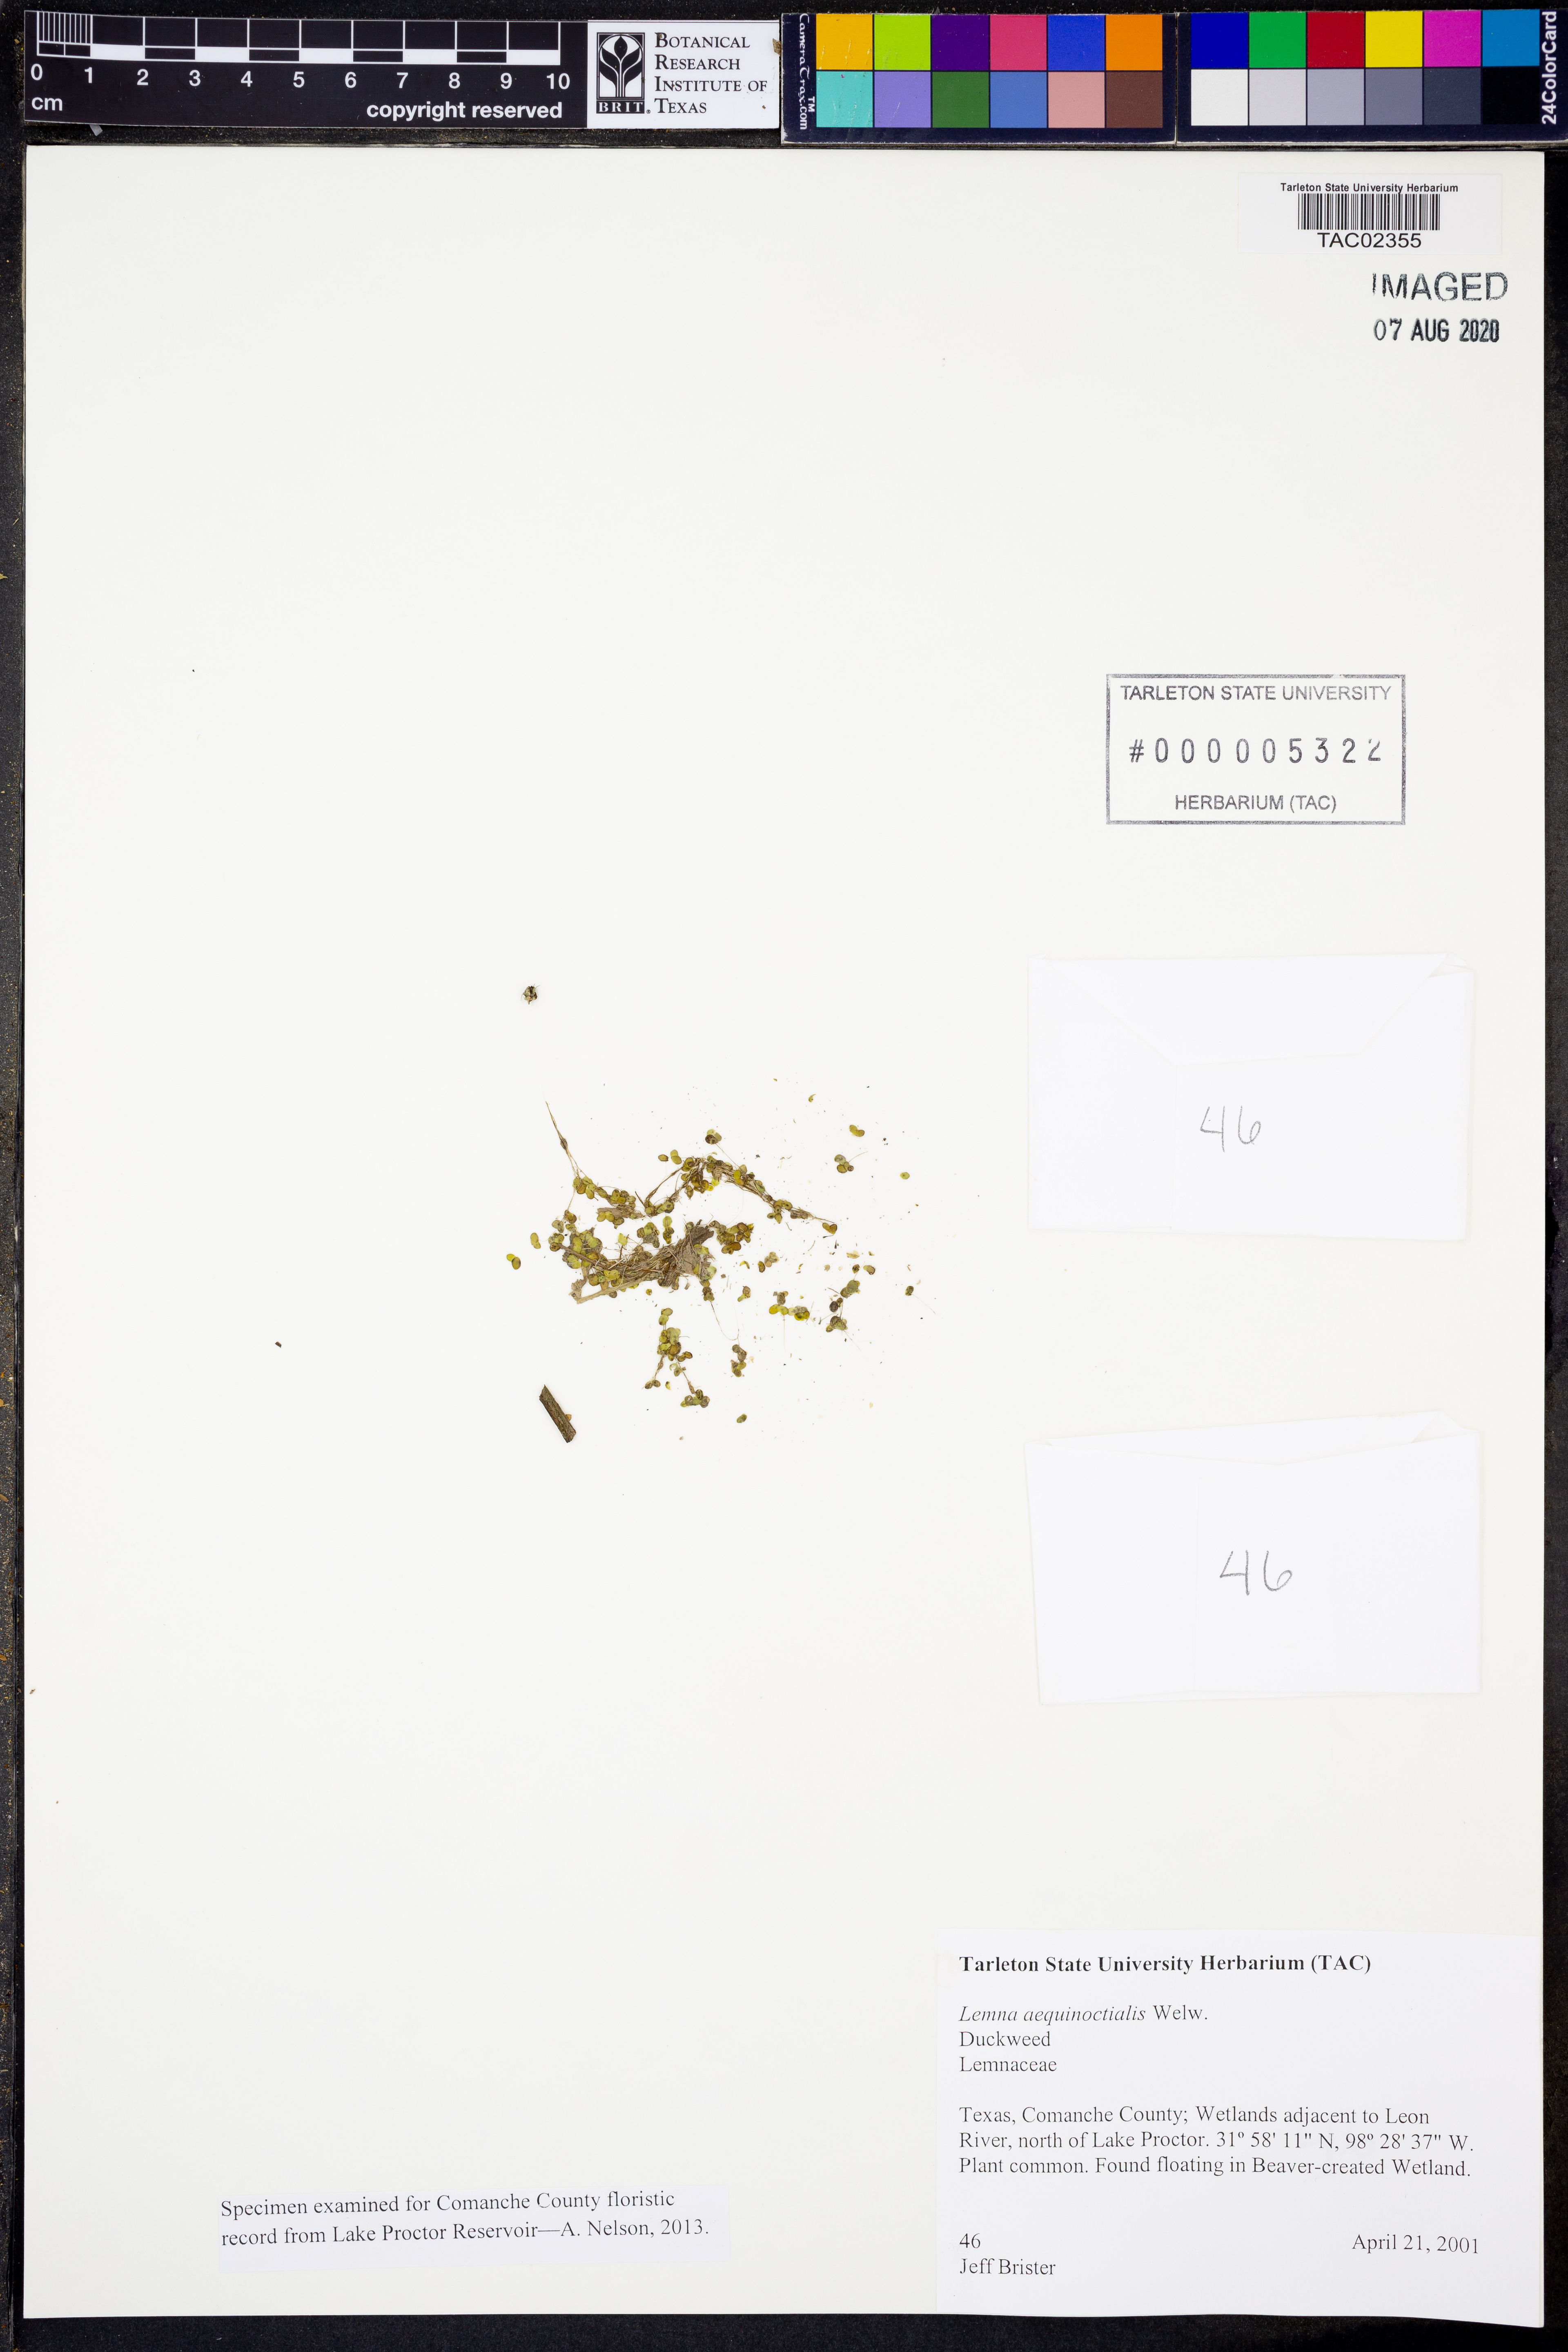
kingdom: Plantae
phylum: Tracheophyta
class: Liliopsida
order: Alismatales
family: Araceae
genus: Lemna
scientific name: Lemna aequinoctialis
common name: Duckweed
